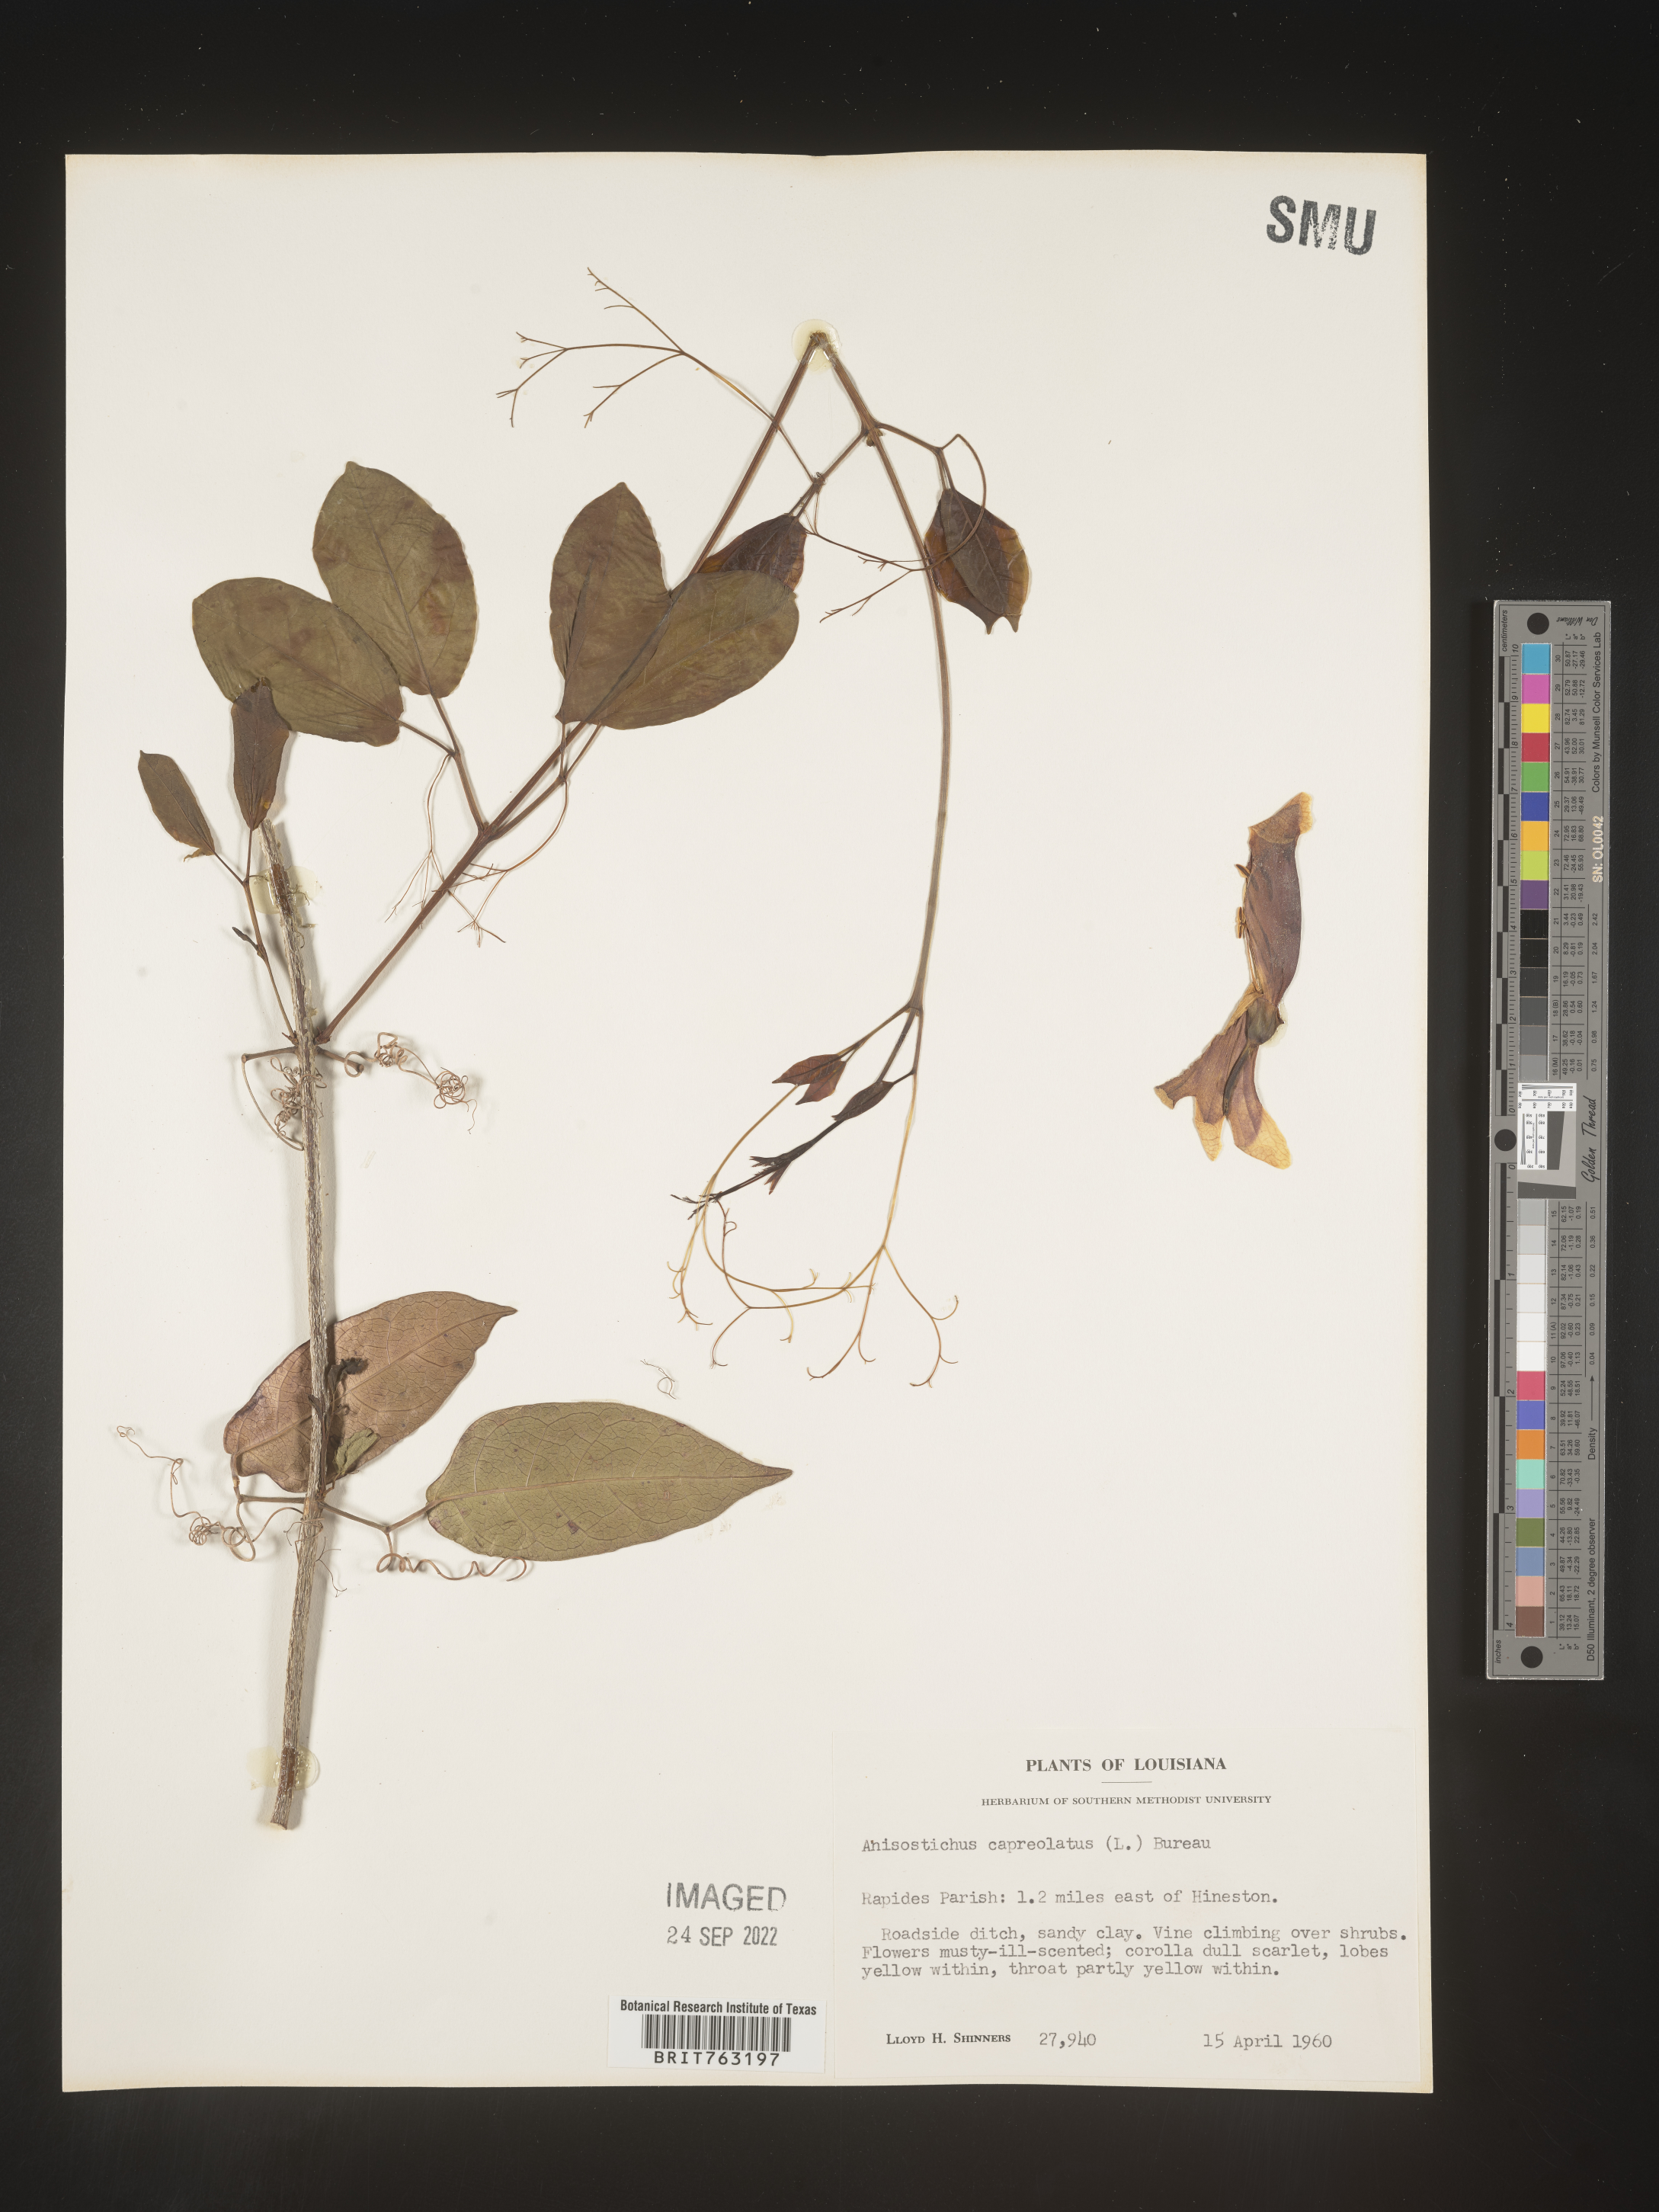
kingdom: Plantae
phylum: Tracheophyta
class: Magnoliopsida
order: Lamiales
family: Bignoniaceae
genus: Bignonia
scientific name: Bignonia capreolata
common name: Crossvine
